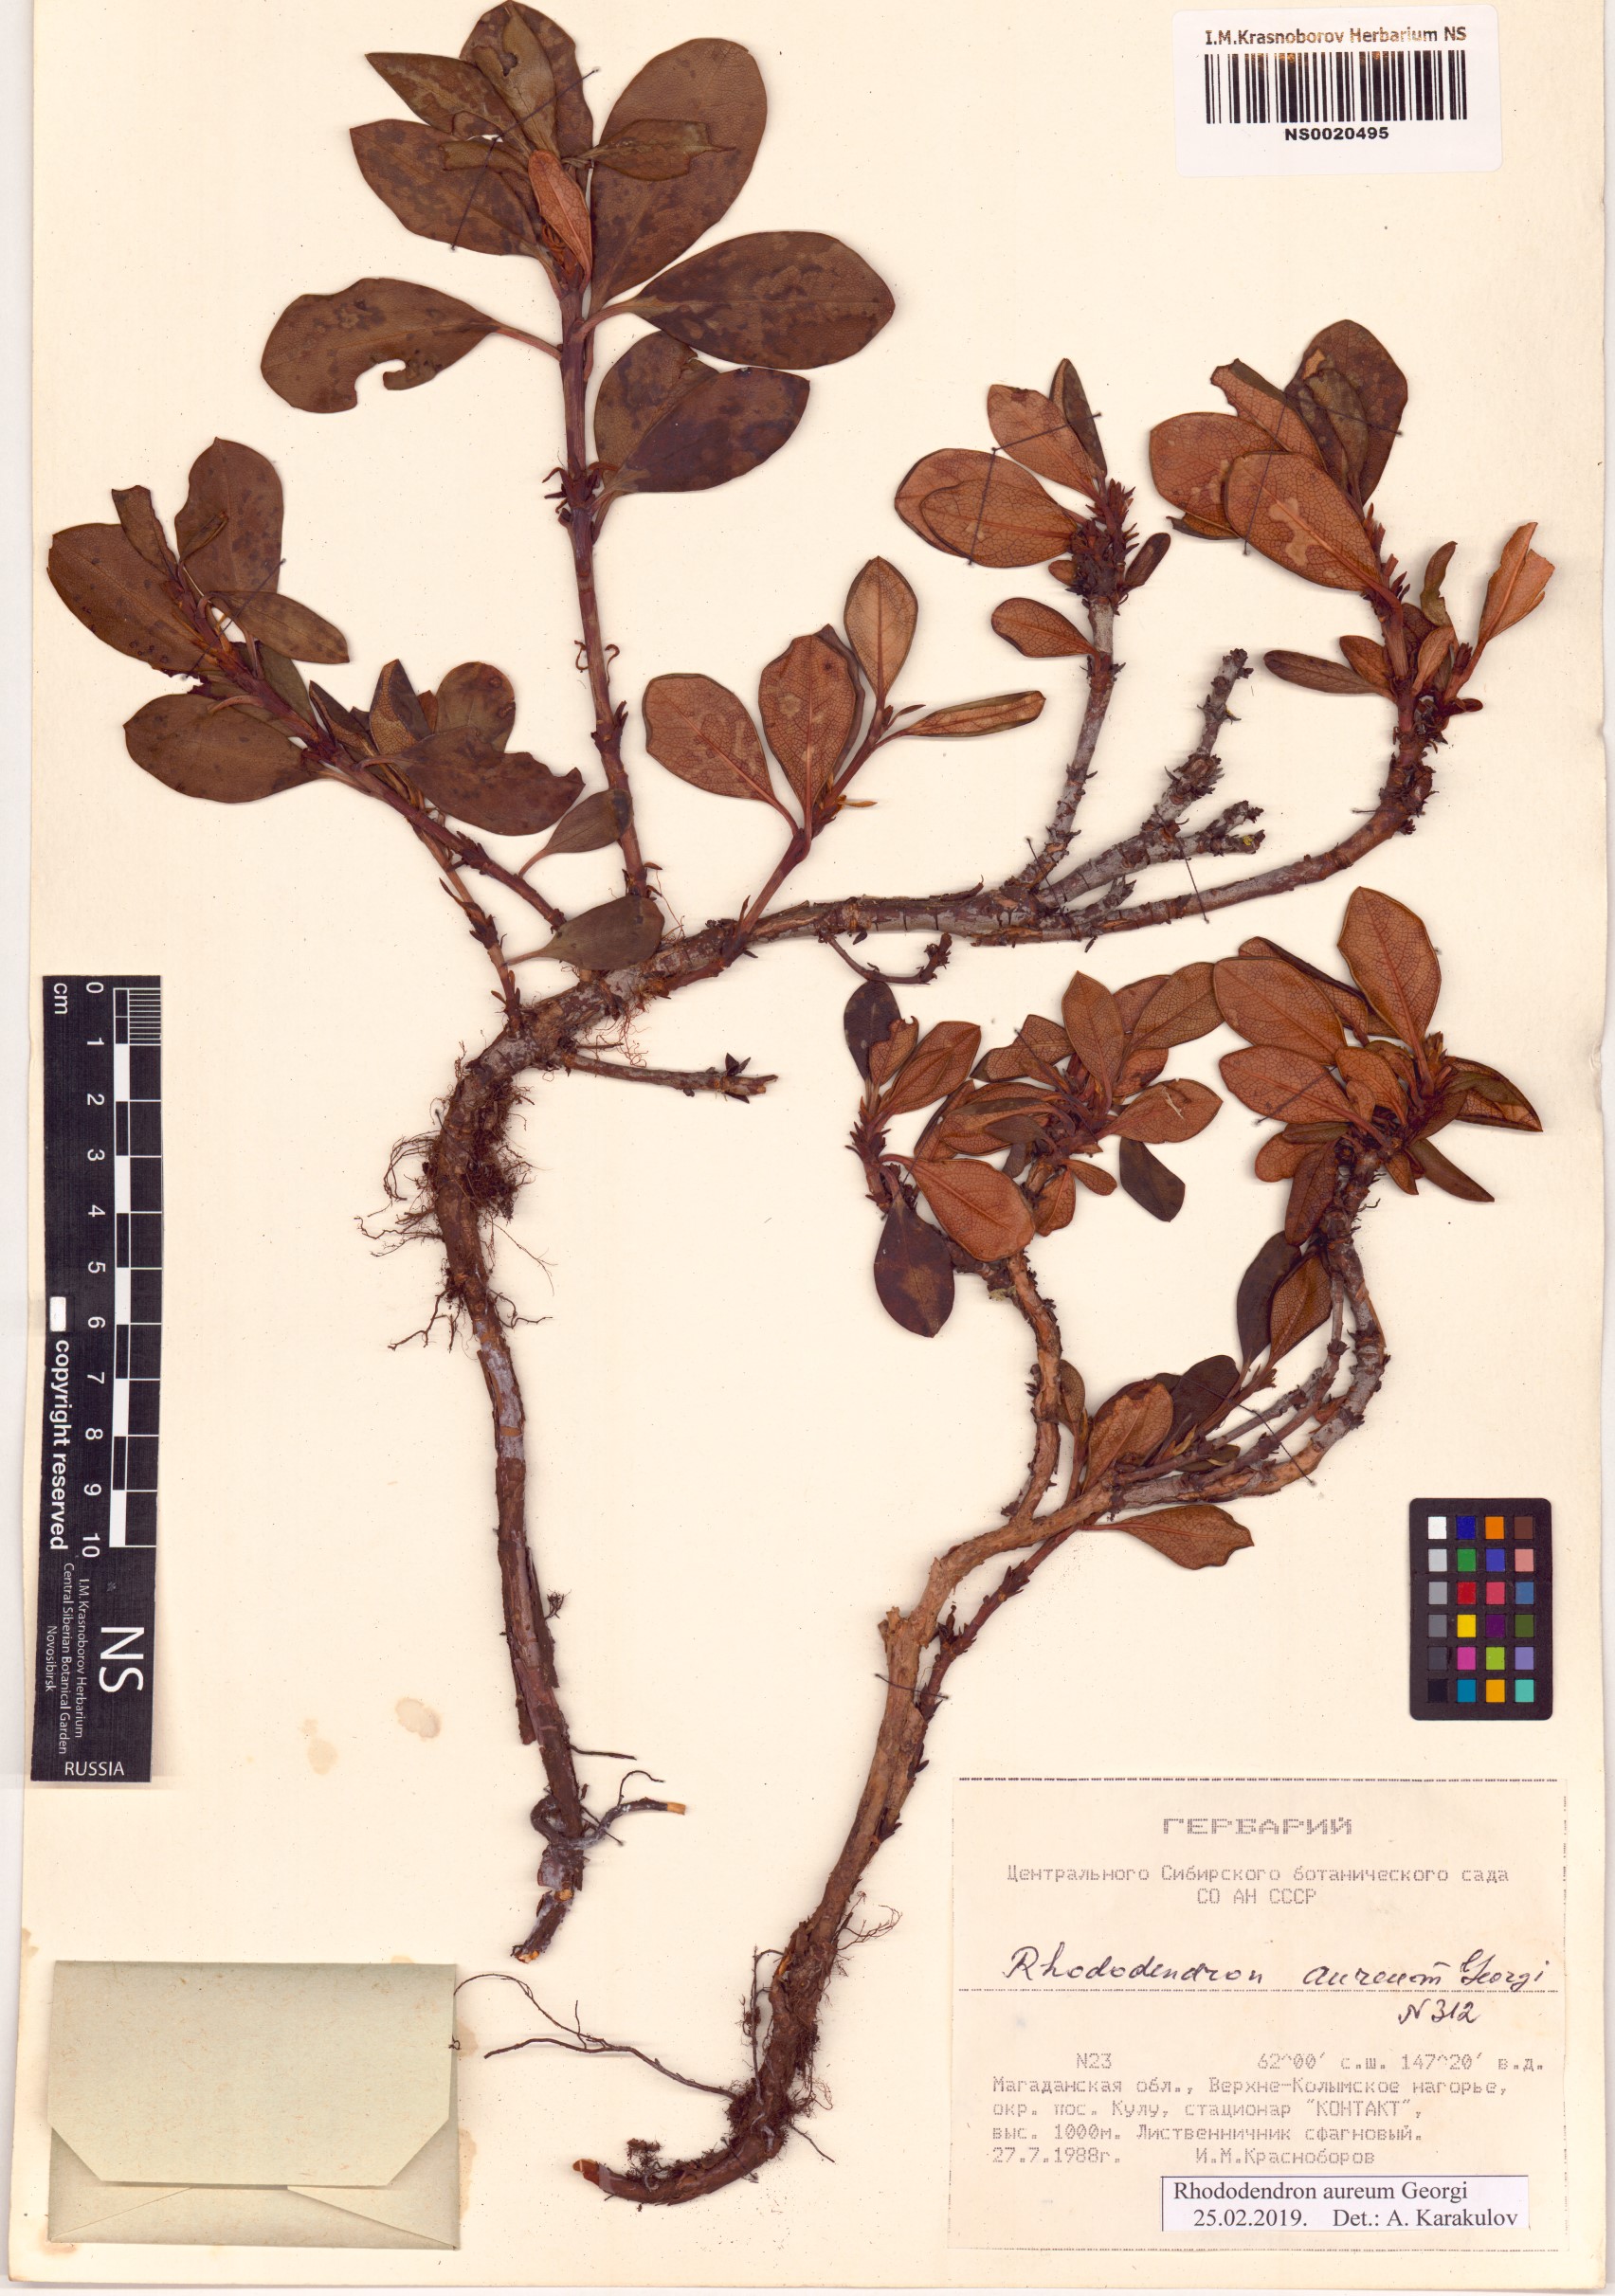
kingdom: Plantae
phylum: Tracheophyta
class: Magnoliopsida
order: Ericales
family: Ericaceae
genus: Rhododendron
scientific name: Rhododendron aureum
